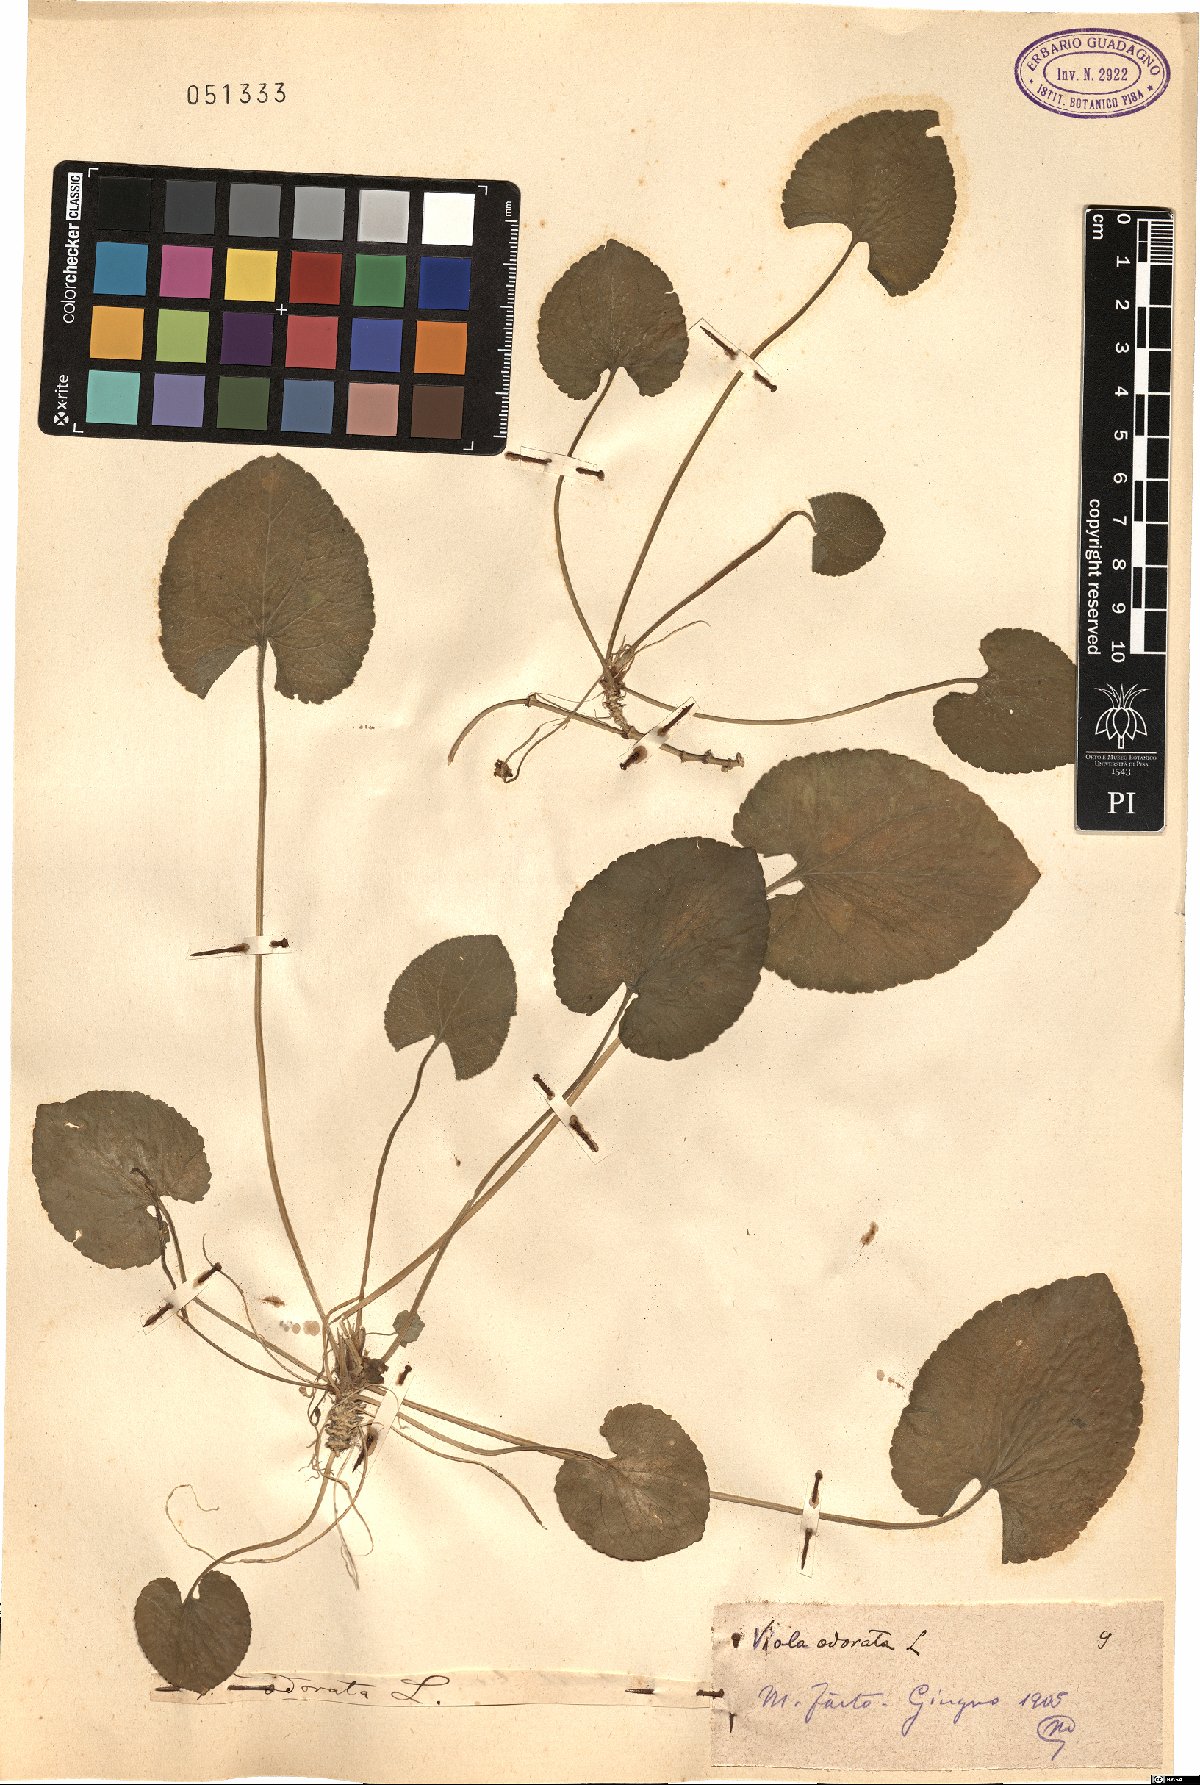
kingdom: Plantae
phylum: Tracheophyta
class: Magnoliopsida
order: Malpighiales
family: Violaceae
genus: Viola
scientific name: Viola odorata
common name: Sweet violet
